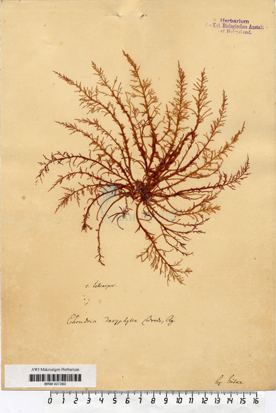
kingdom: Plantae
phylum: Rhodophyta
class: Florideophyceae
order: Ceramiales
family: Rhodomelaceae
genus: Chondria
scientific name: Chondria dasyphylla
